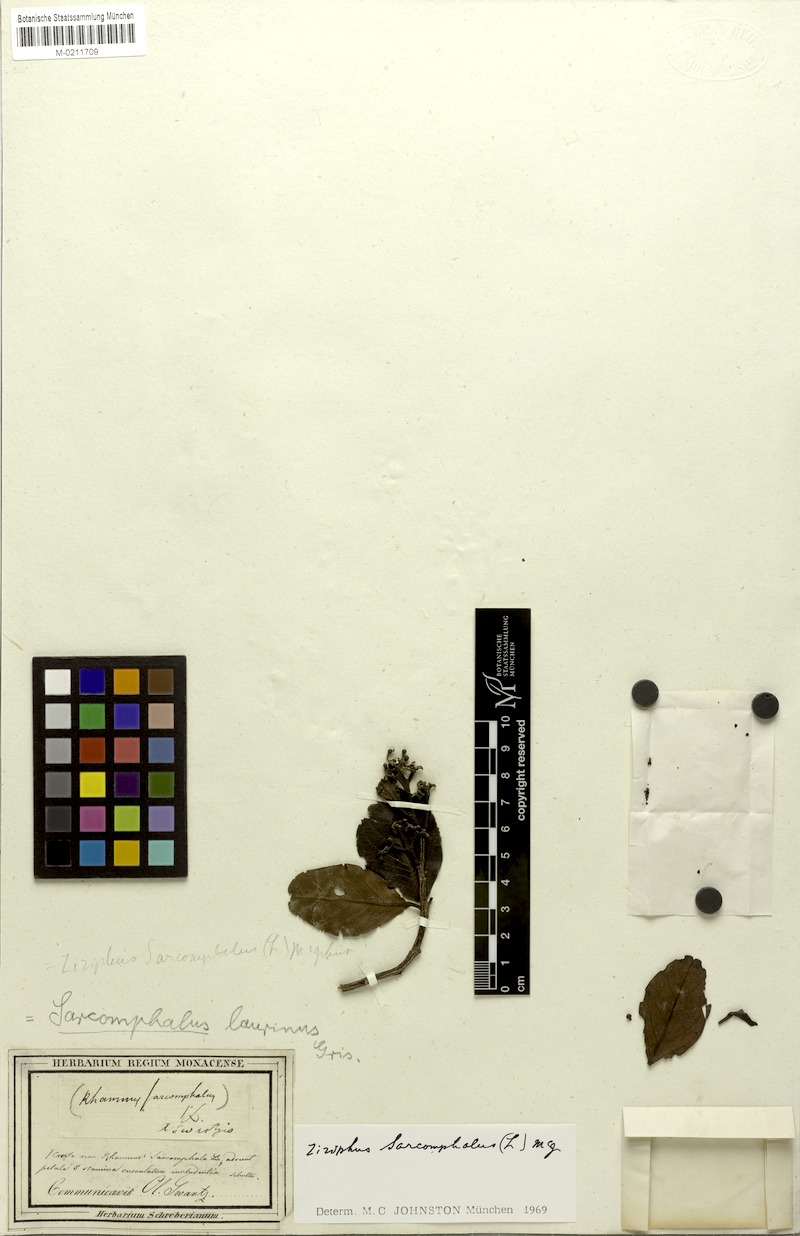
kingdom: Plantae
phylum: Tracheophyta
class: Magnoliopsida
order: Rosales
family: Rhamnaceae
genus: Sarcomphalus
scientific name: Sarcomphalus laurinus
